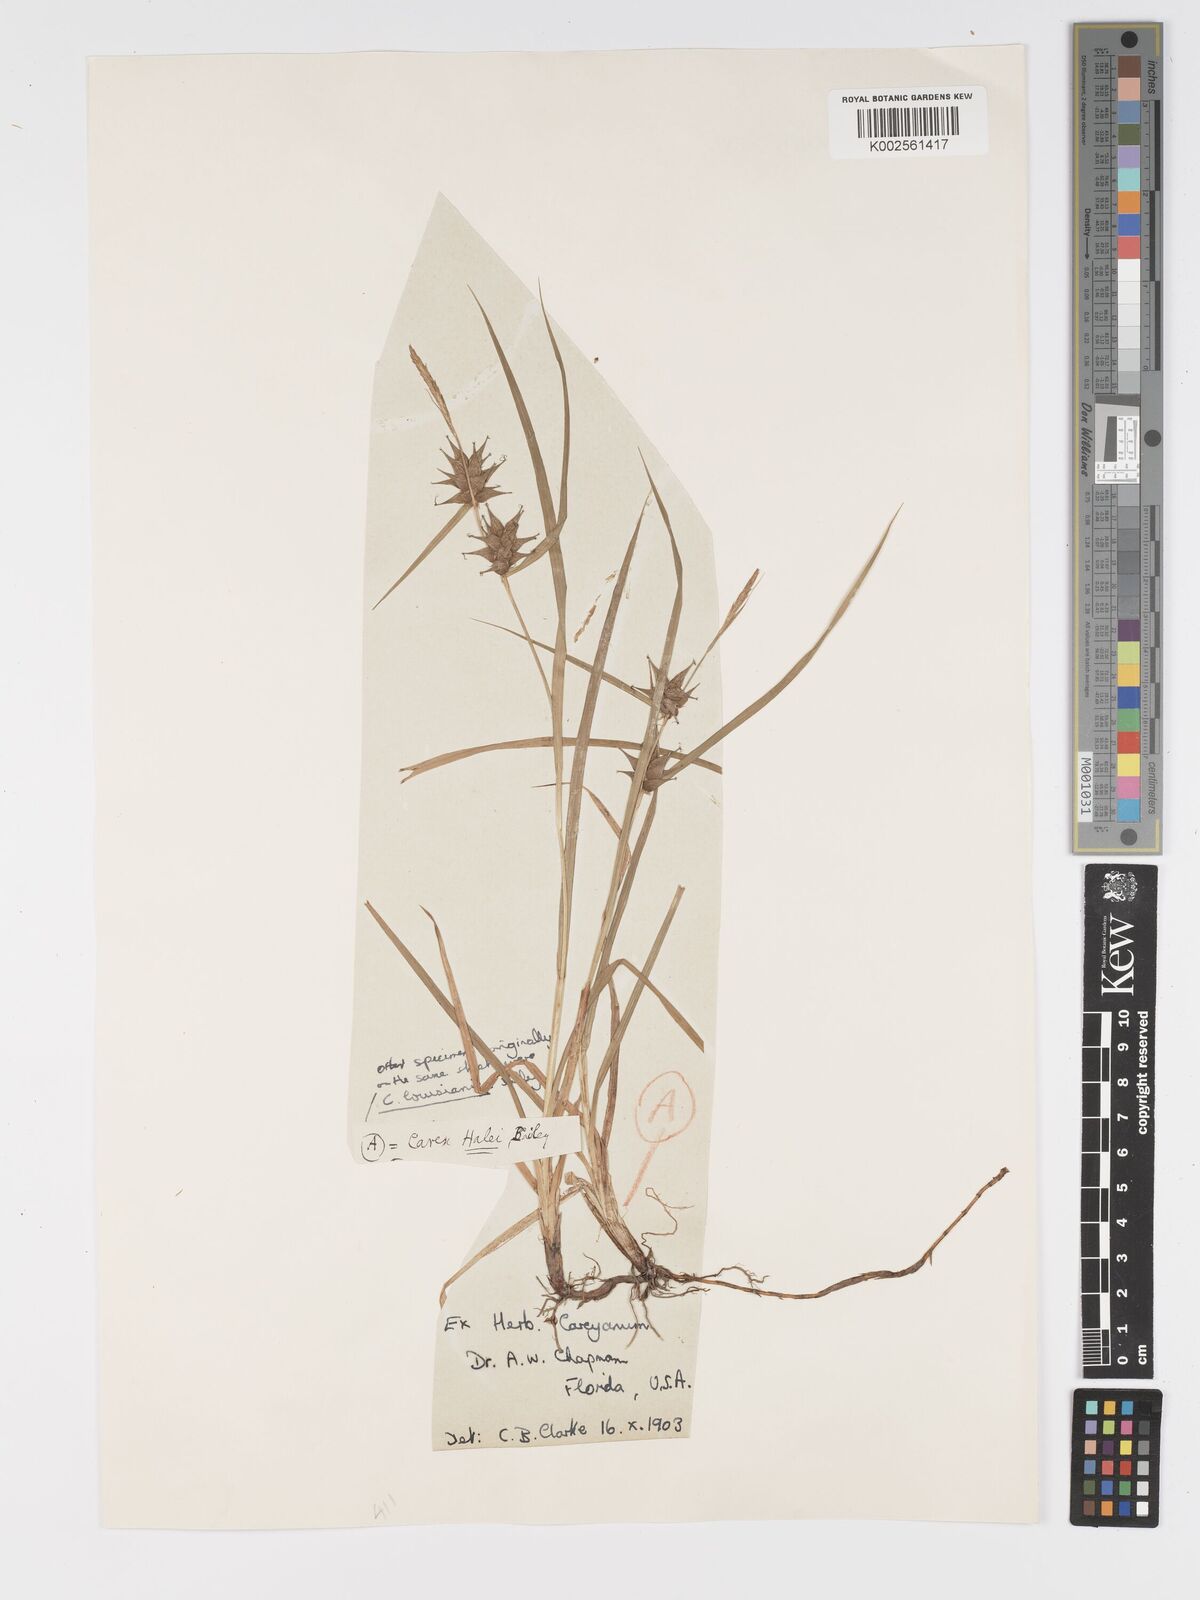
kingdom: Plantae
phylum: Tracheophyta
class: Liliopsida
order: Poales
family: Cyperaceae
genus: Carex
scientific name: Carex hallii
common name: Deer sedge
